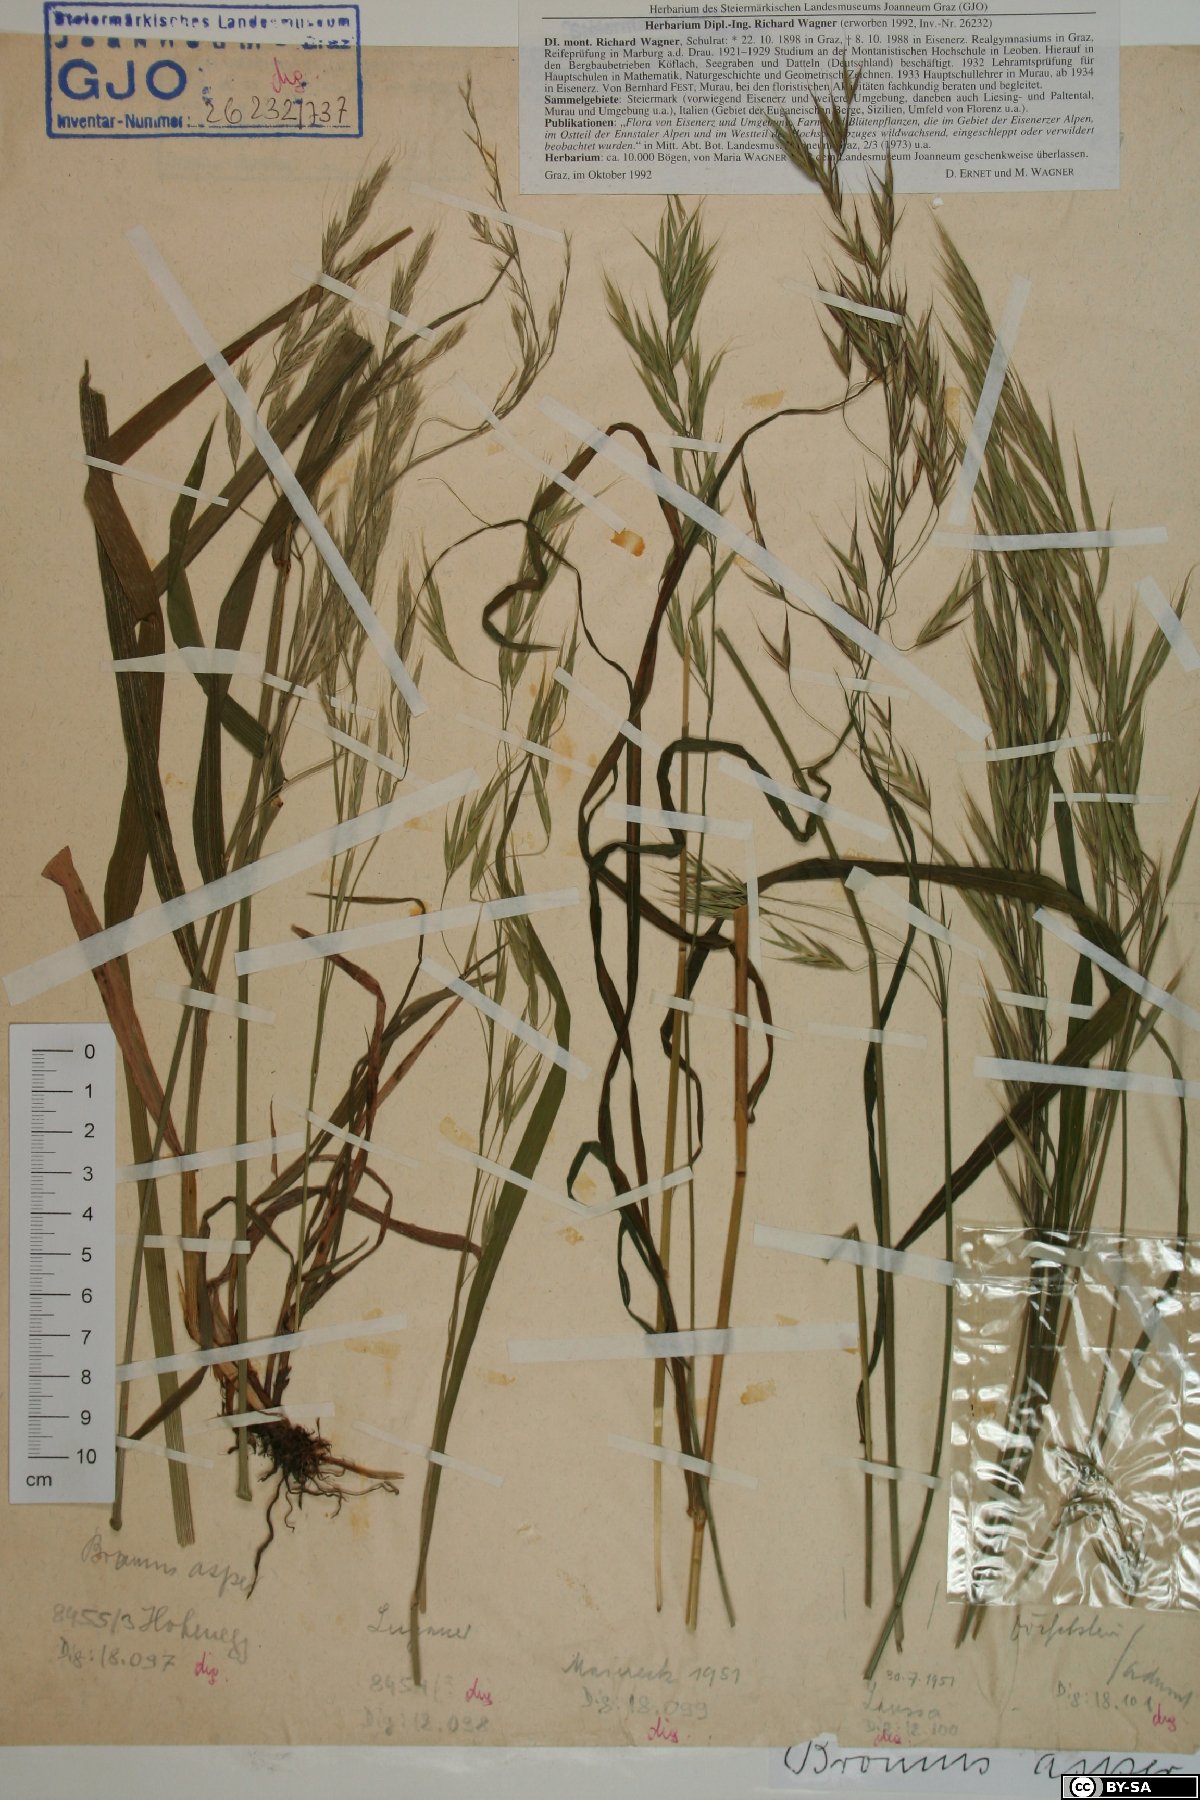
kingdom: Plantae
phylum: Tracheophyta
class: Liliopsida
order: Poales
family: Poaceae
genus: Bromus
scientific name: Bromus ramosus
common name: Hairy brome
